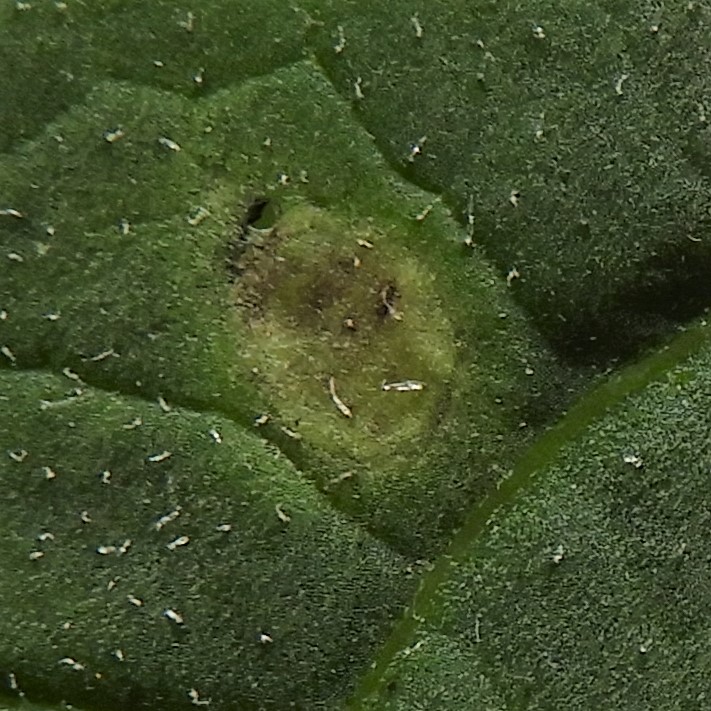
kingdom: Fungi
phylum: Basidiomycota
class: Pucciniomycetes
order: Pucciniales
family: Pucciniaceae
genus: Puccinia
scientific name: Puccinia cnici-oleracei
